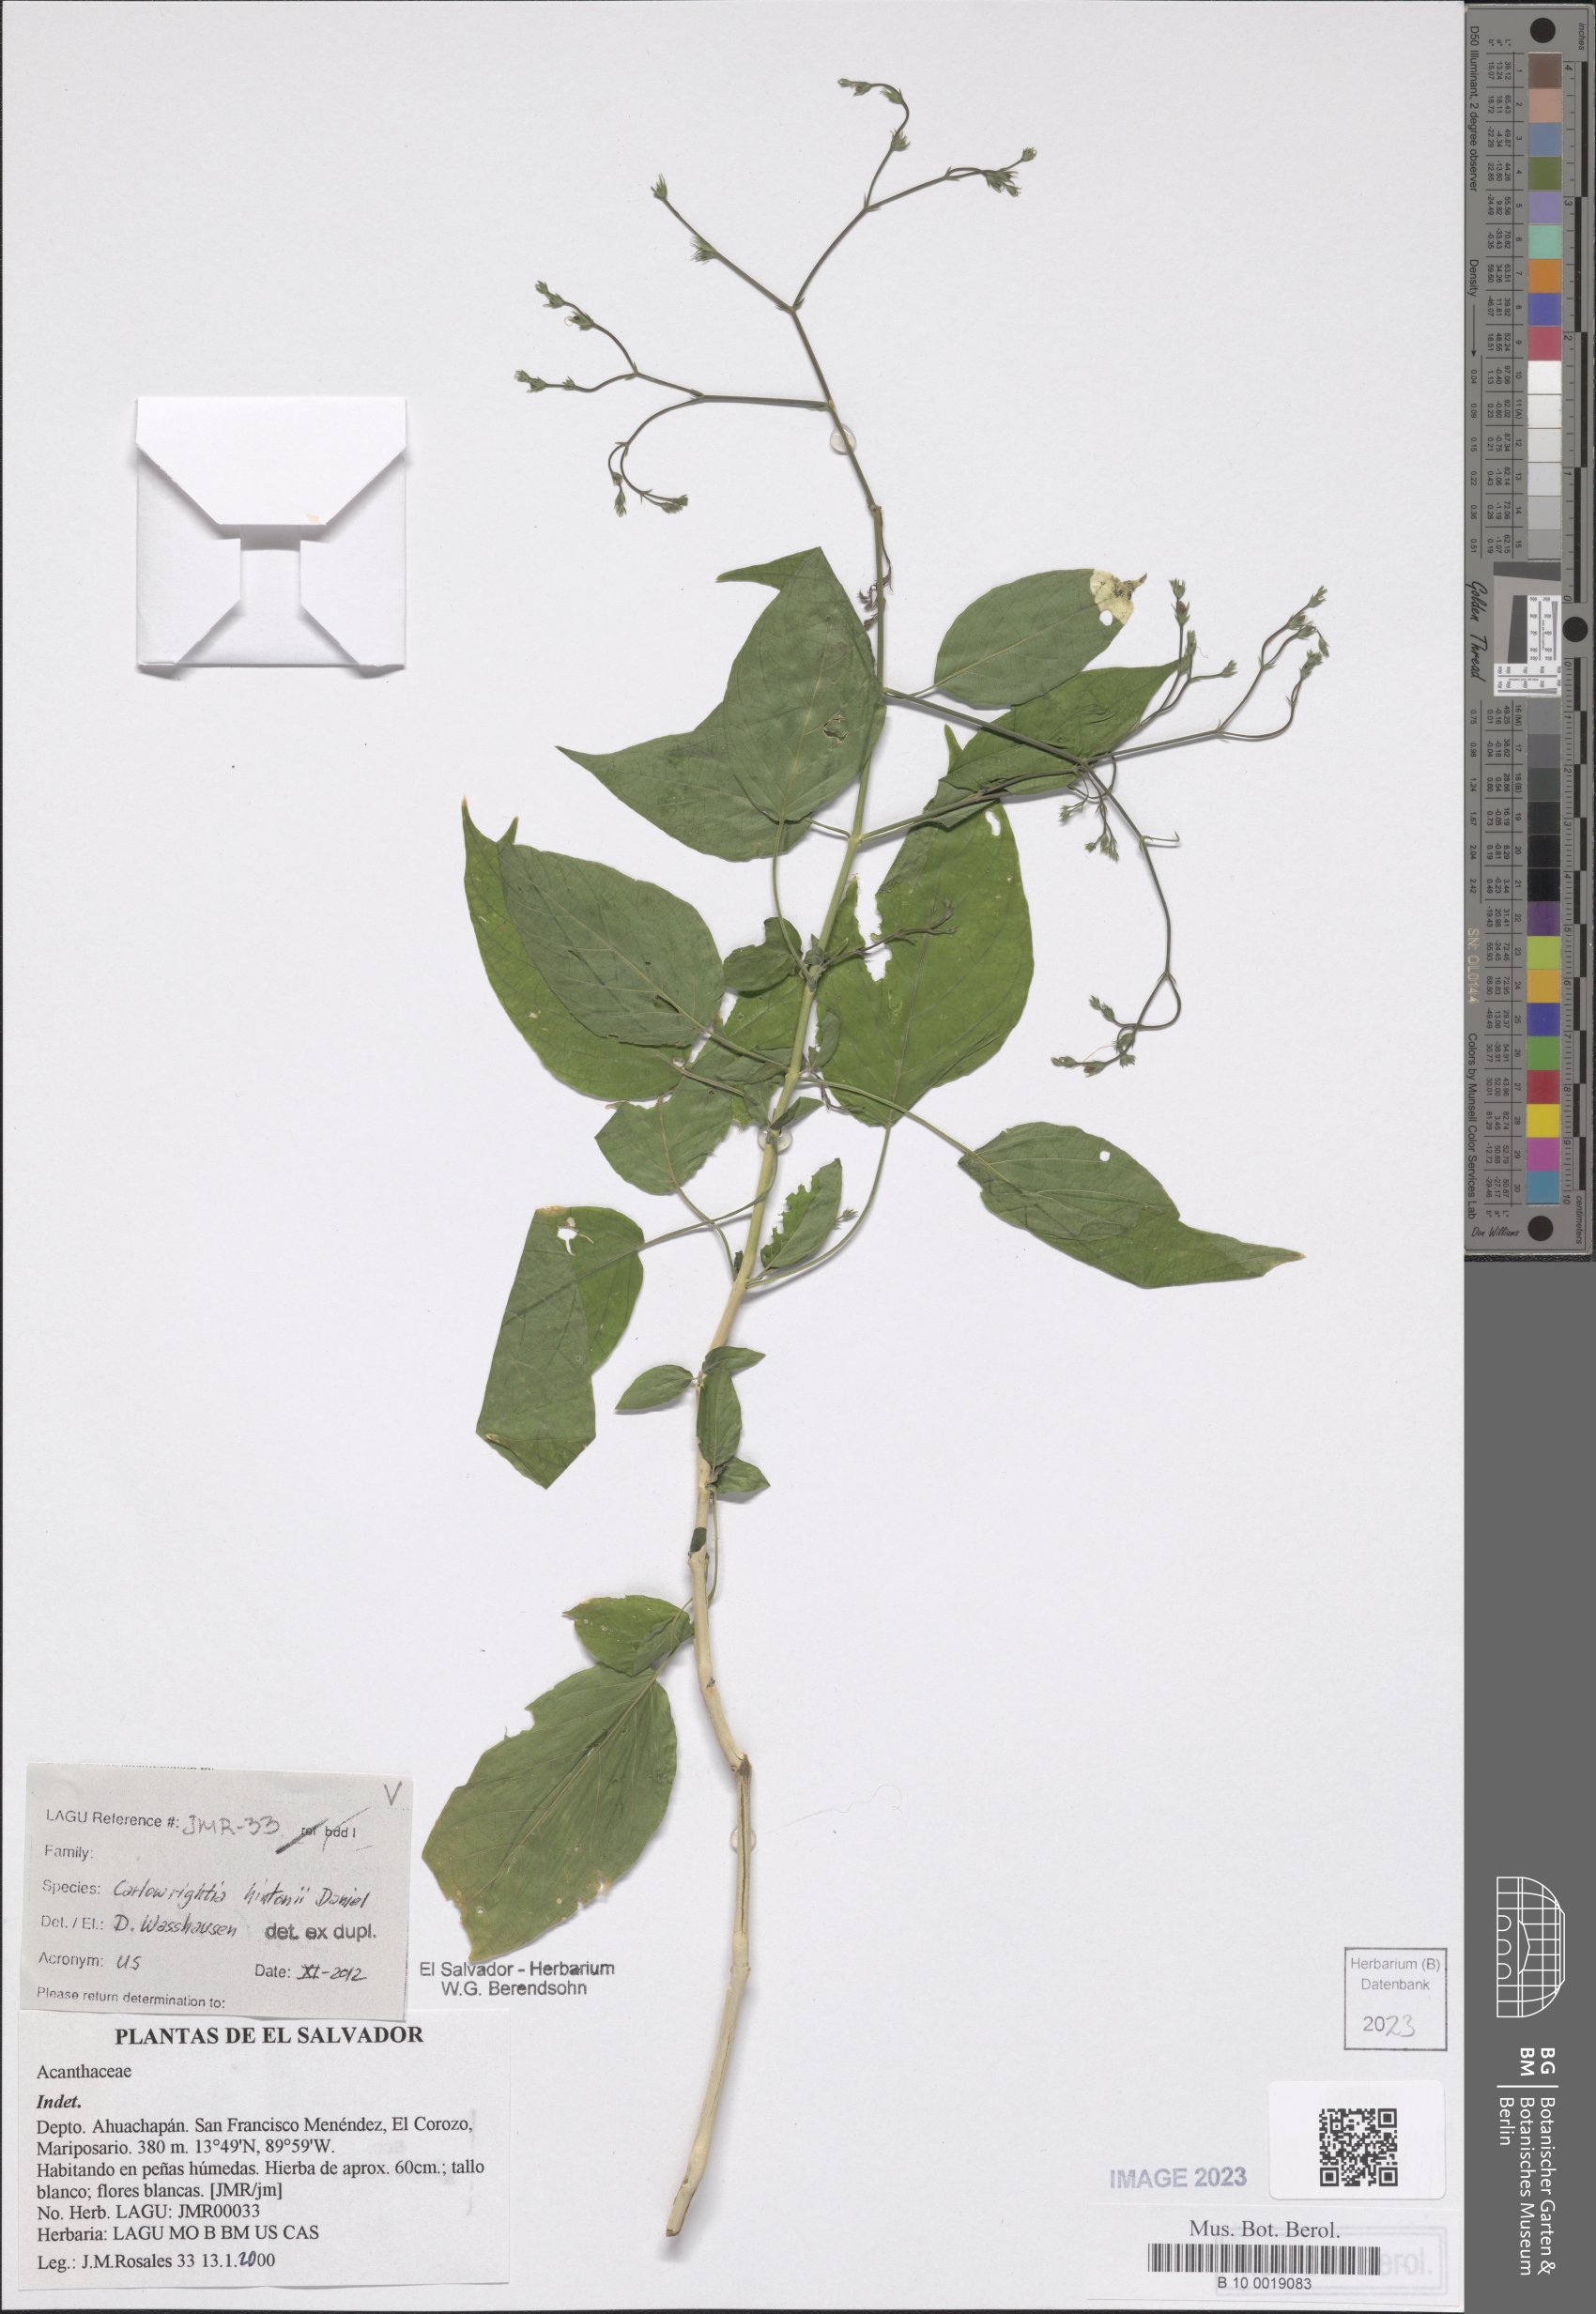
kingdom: Plantae
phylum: Tracheophyta
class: Magnoliopsida
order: Lamiales
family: Acanthaceae
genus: Carlowrightia
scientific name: Carlowrightia hintonii
